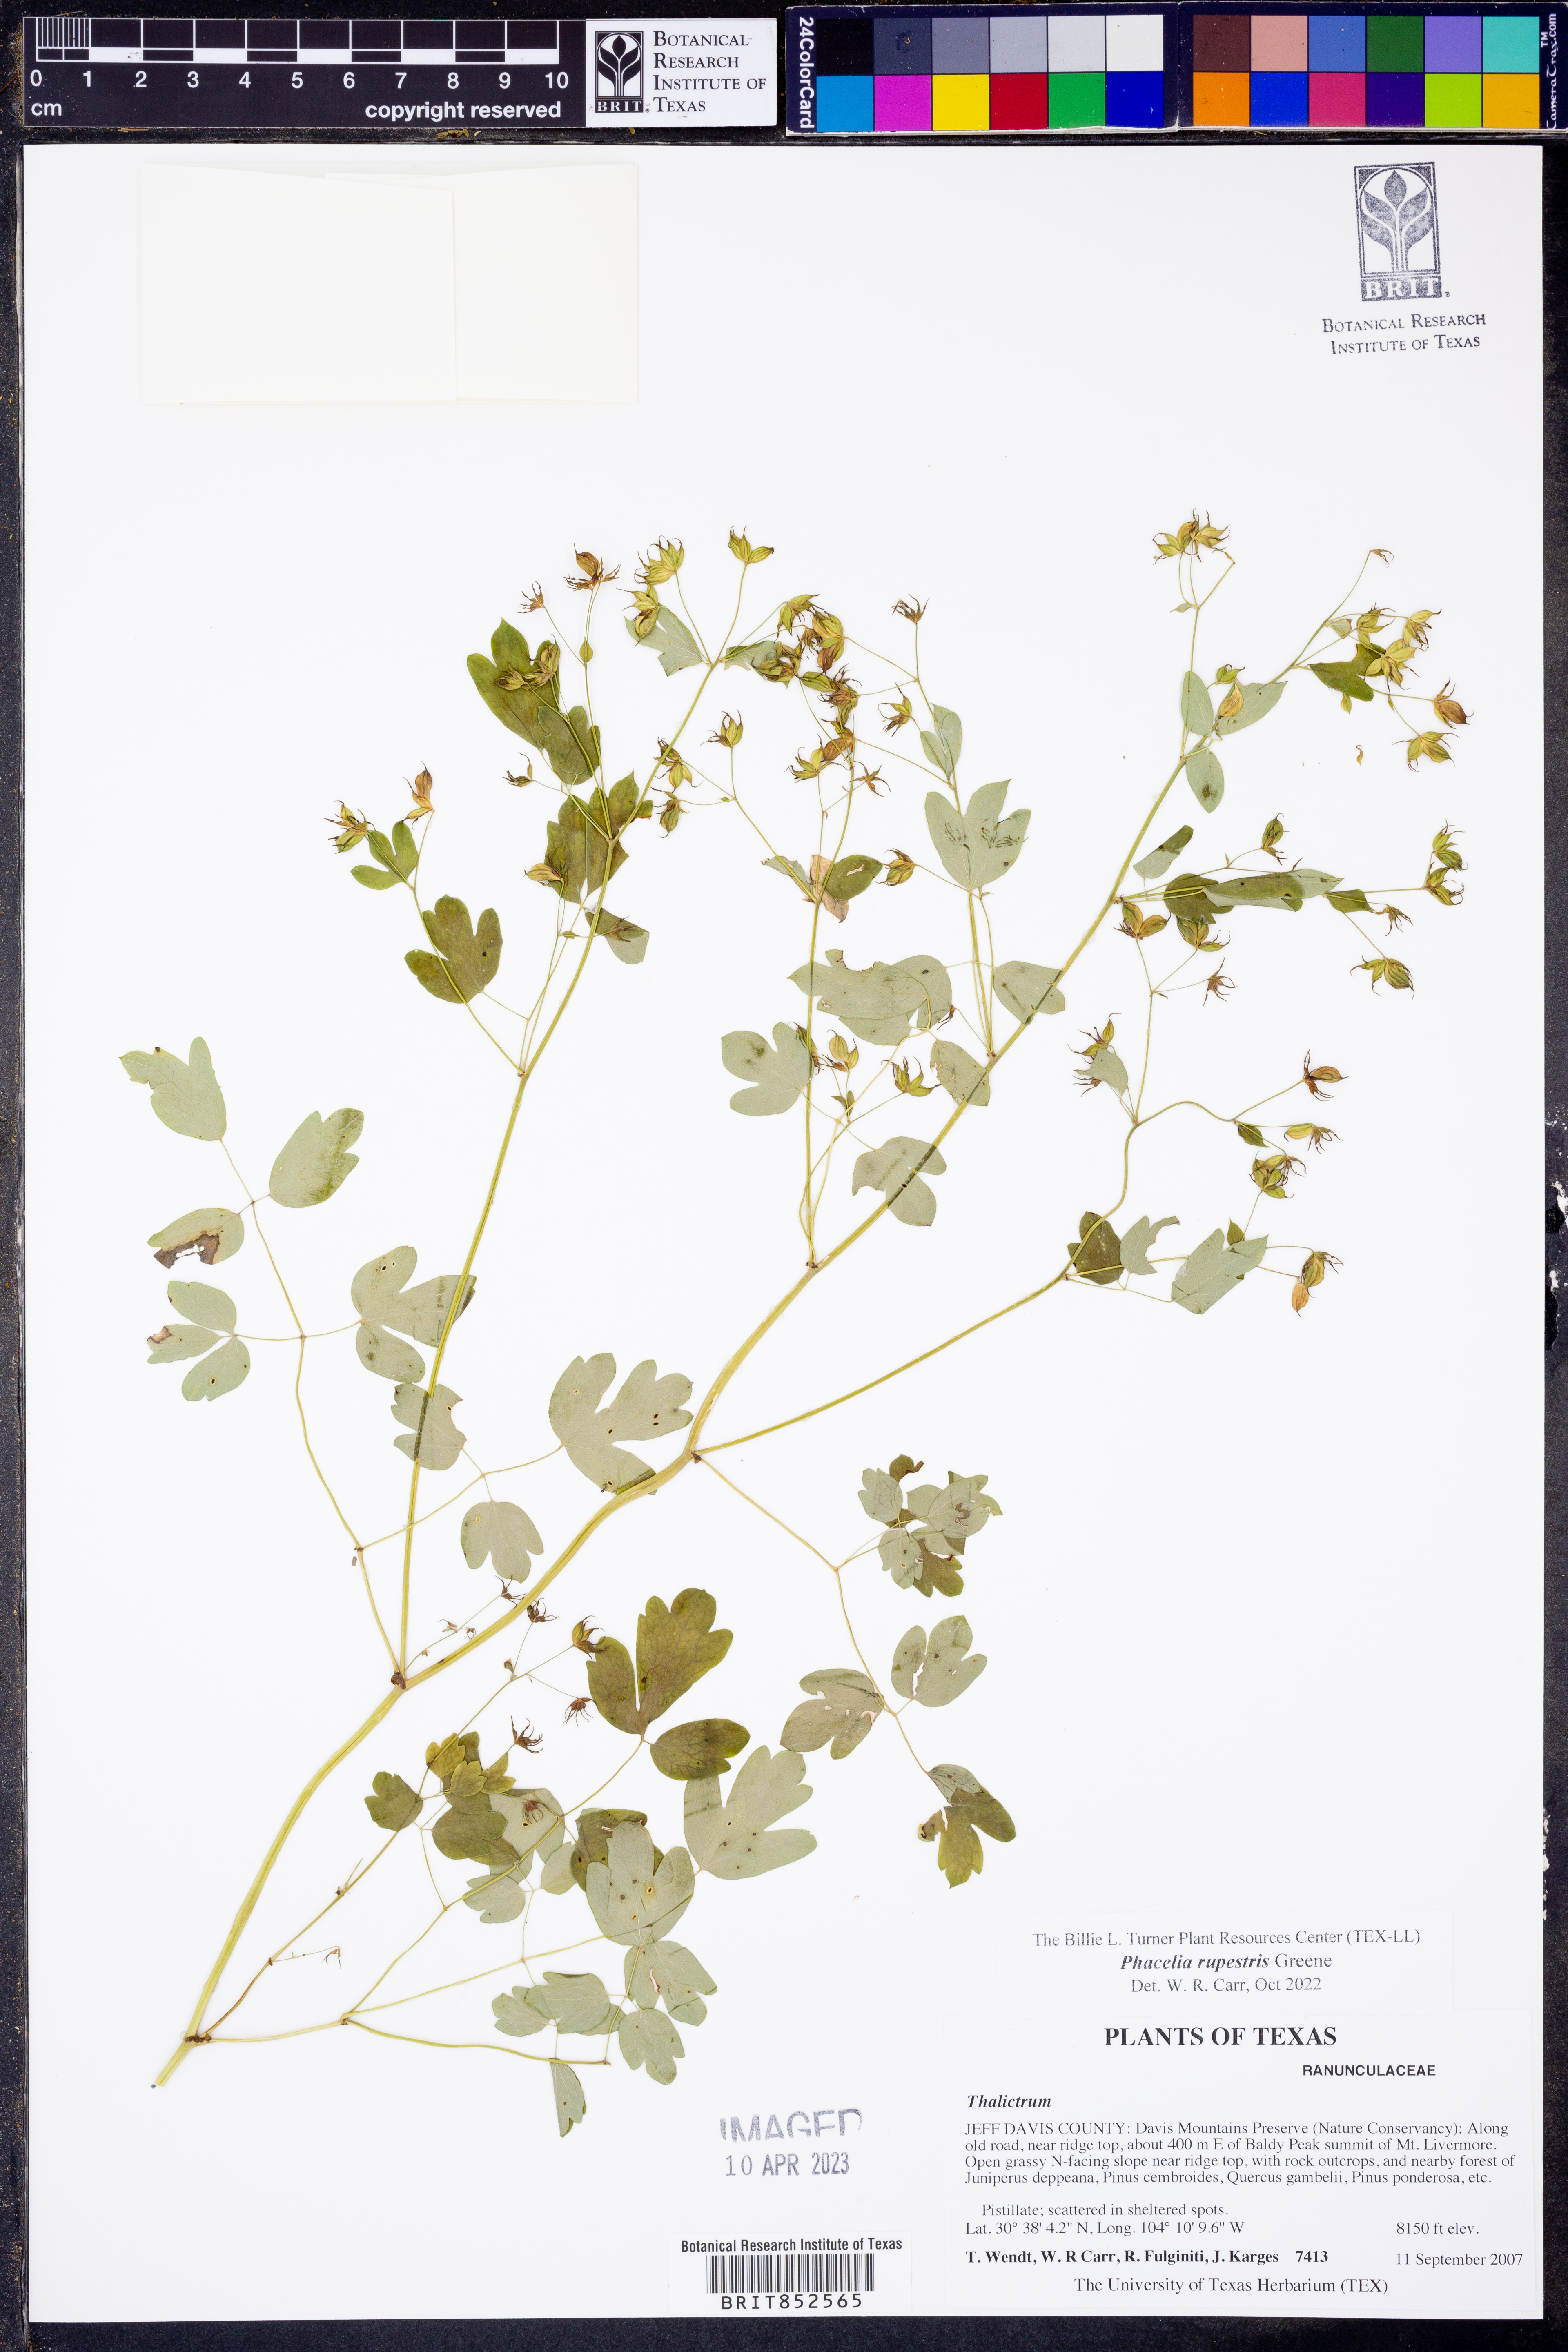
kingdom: Plantae
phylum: Tracheophyta
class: Magnoliopsida
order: Ranunculales
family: Ranunculaceae
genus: Thalictrum
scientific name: Thalictrum fendleri
